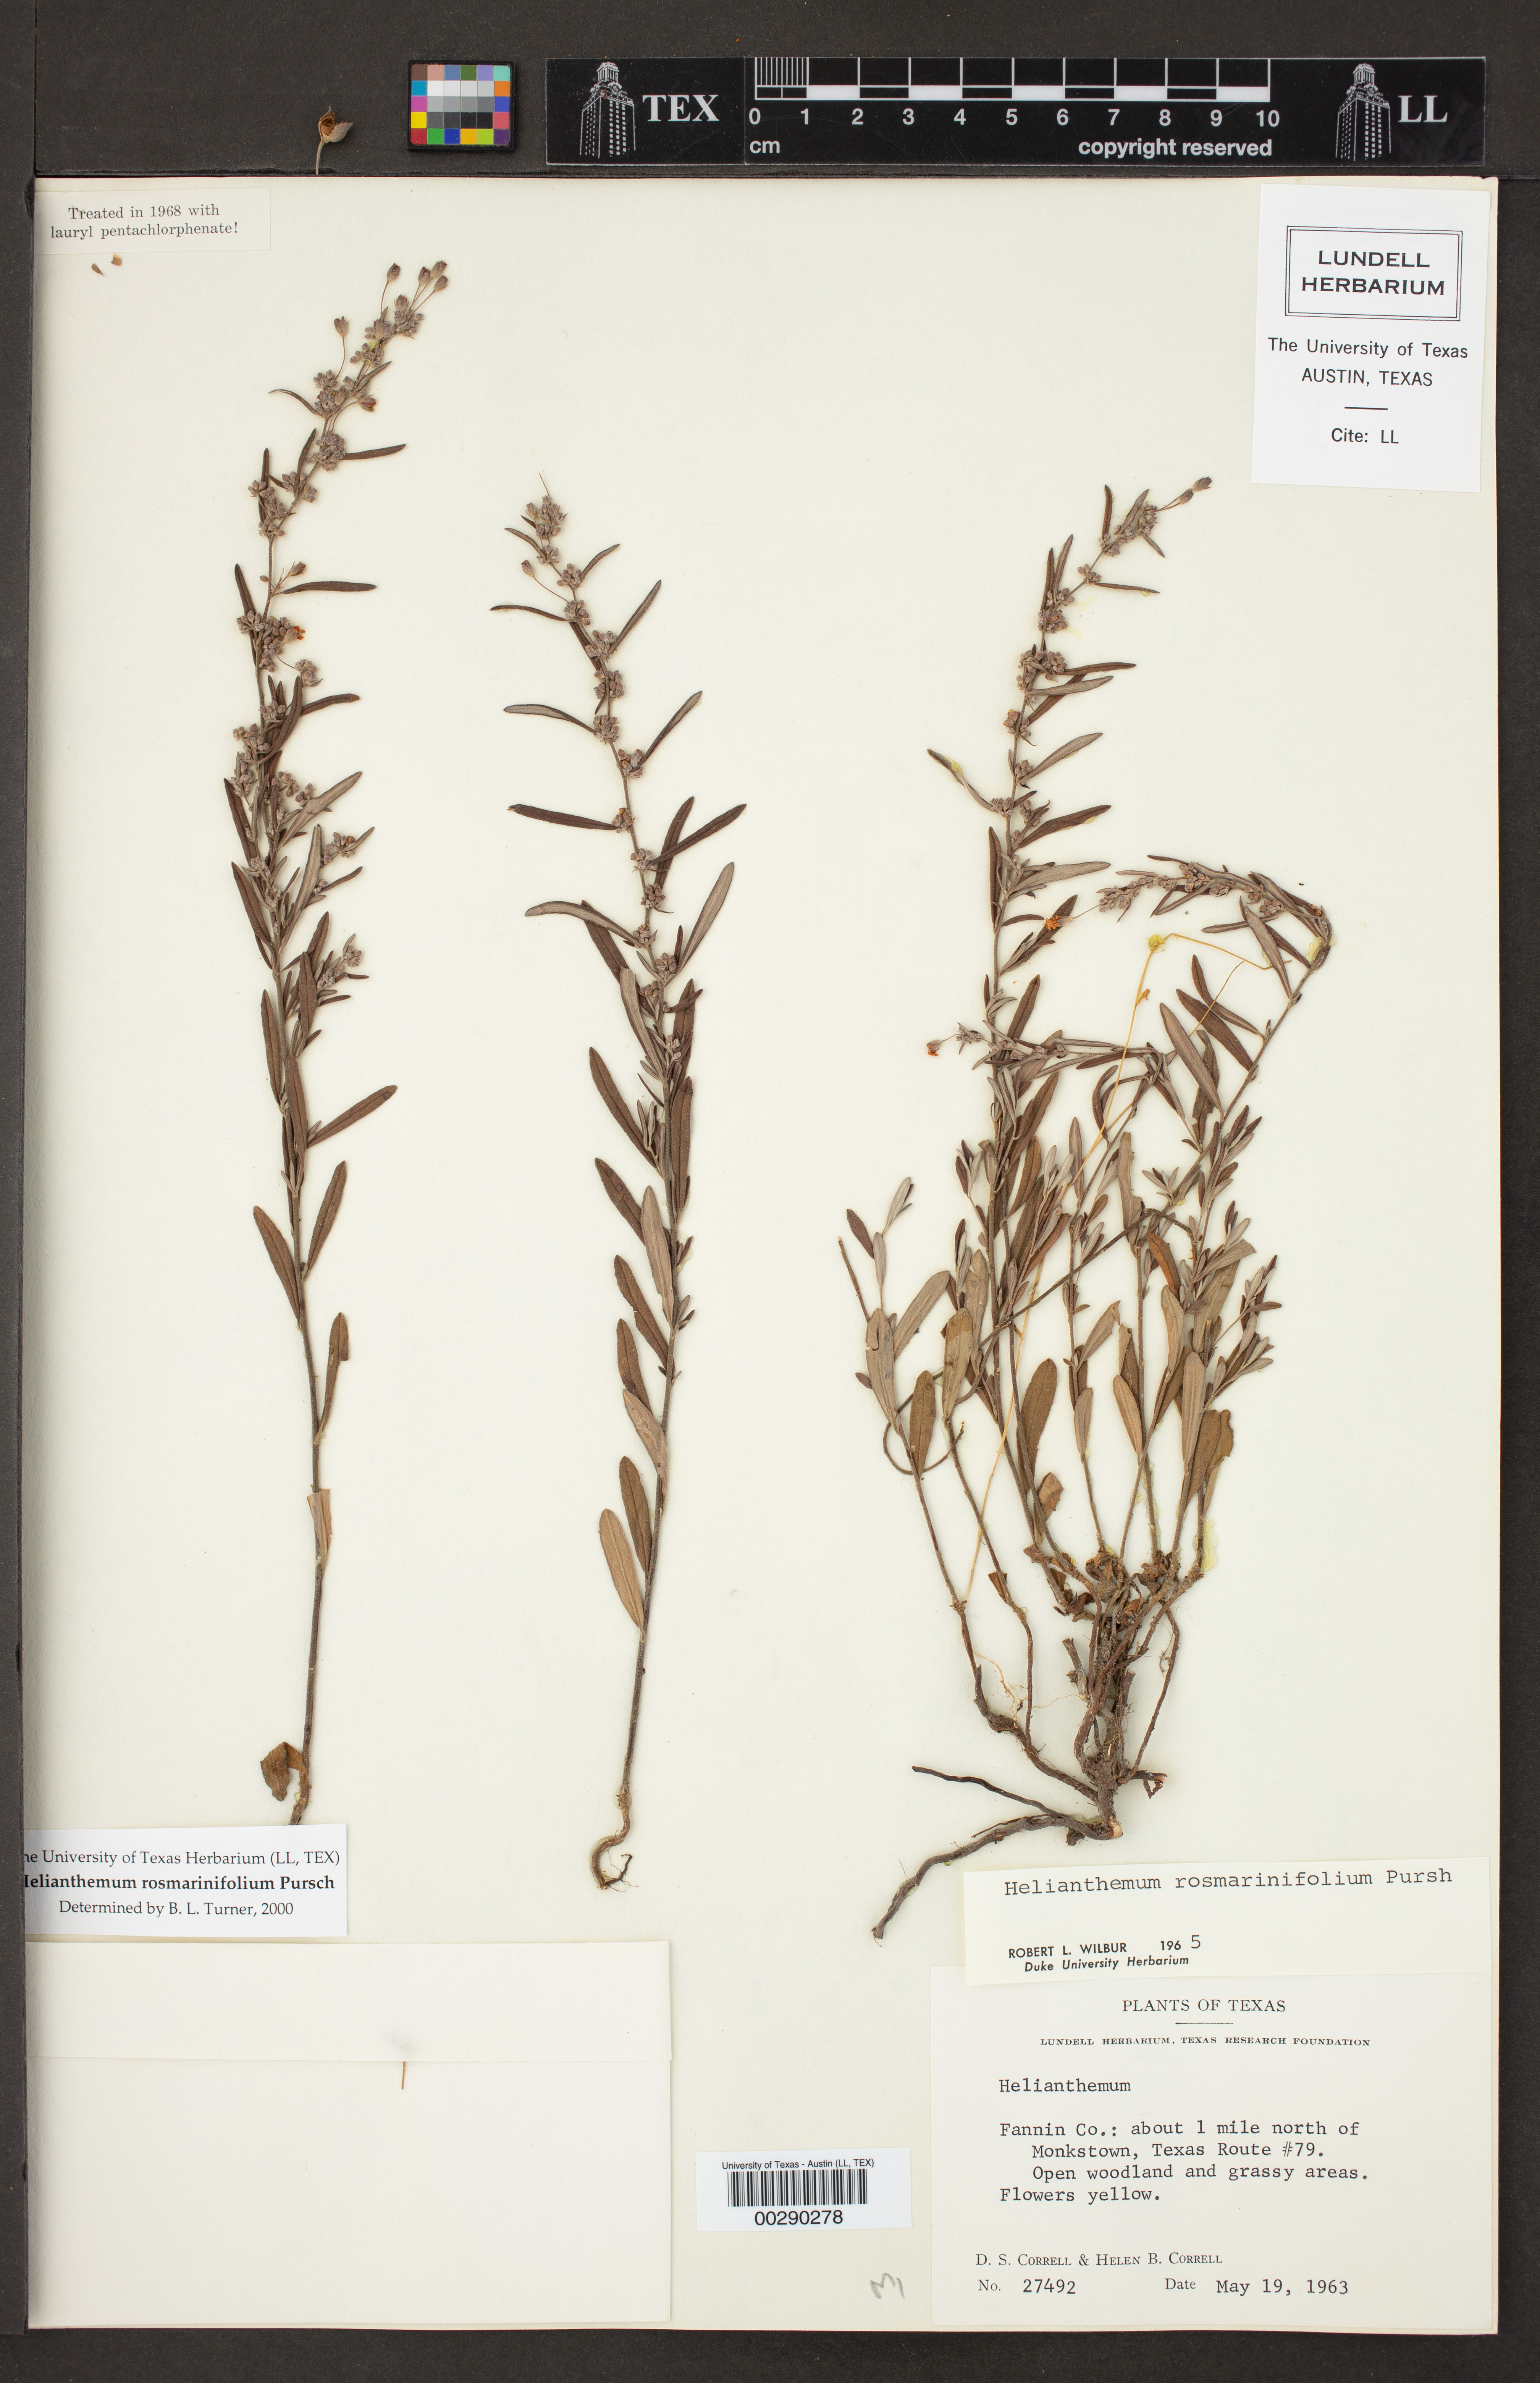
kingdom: Plantae
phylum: Tracheophyta
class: Magnoliopsida
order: Malvales
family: Cistaceae
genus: Helianthemum
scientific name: Helianthemum rosmarinifolium
